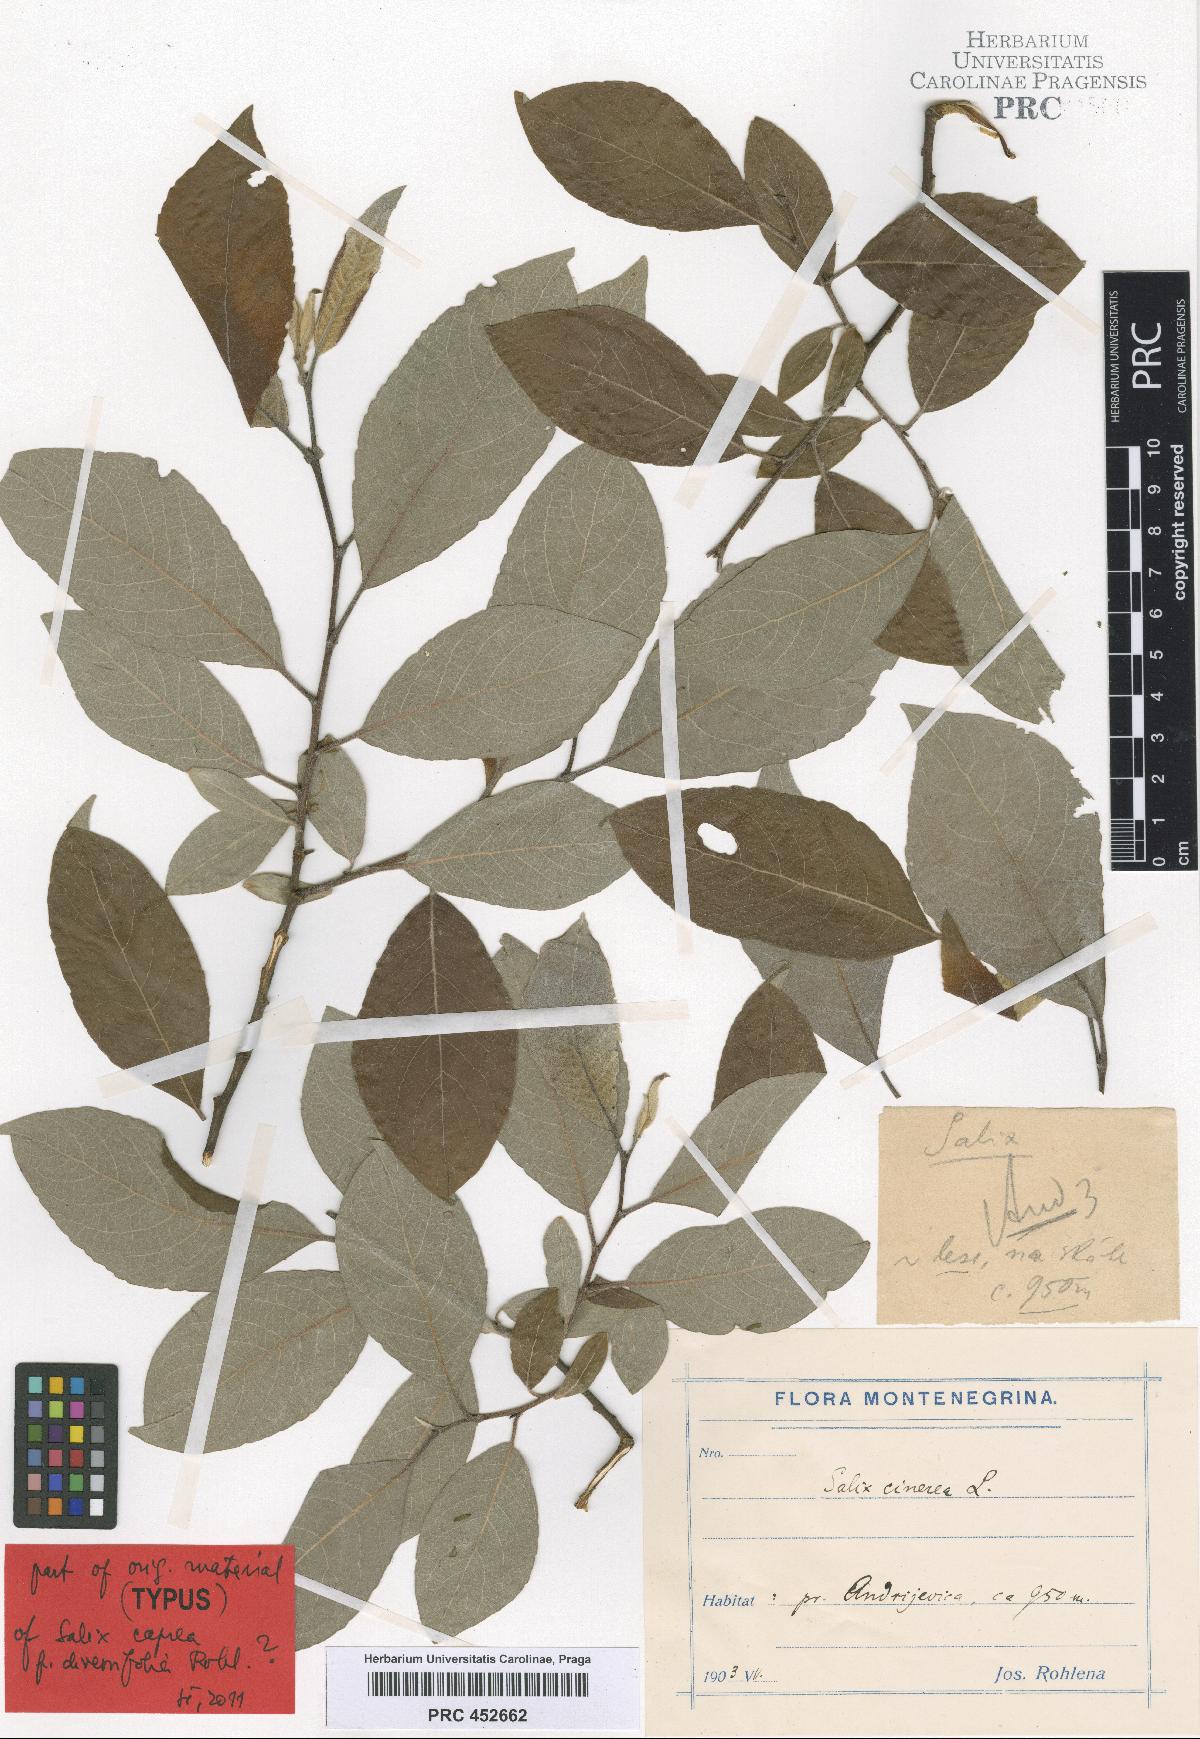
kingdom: Plantae
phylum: Tracheophyta
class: Magnoliopsida
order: Malpighiales
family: Salicaceae
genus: Salix
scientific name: Salix cinerea
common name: Common sallow
